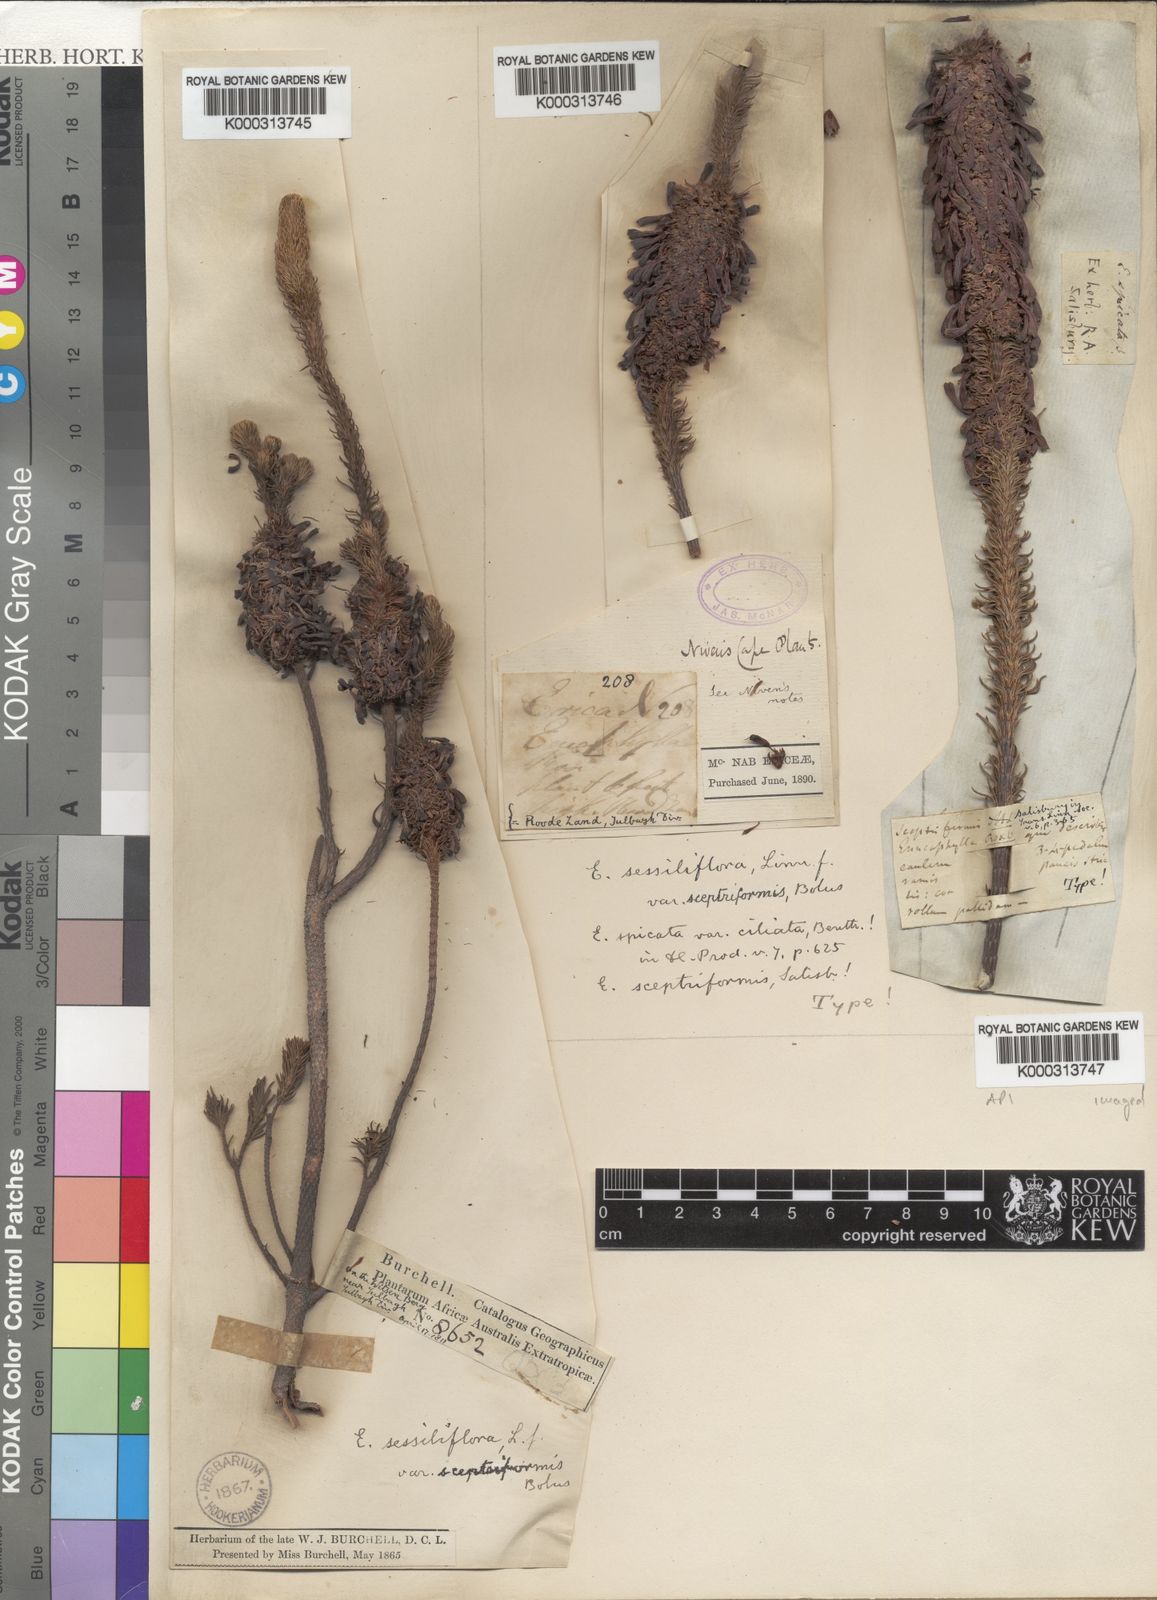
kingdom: Plantae
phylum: Tracheophyta
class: Magnoliopsida
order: Ericales
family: Ericaceae
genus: Erica
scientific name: Erica sessiliflora
